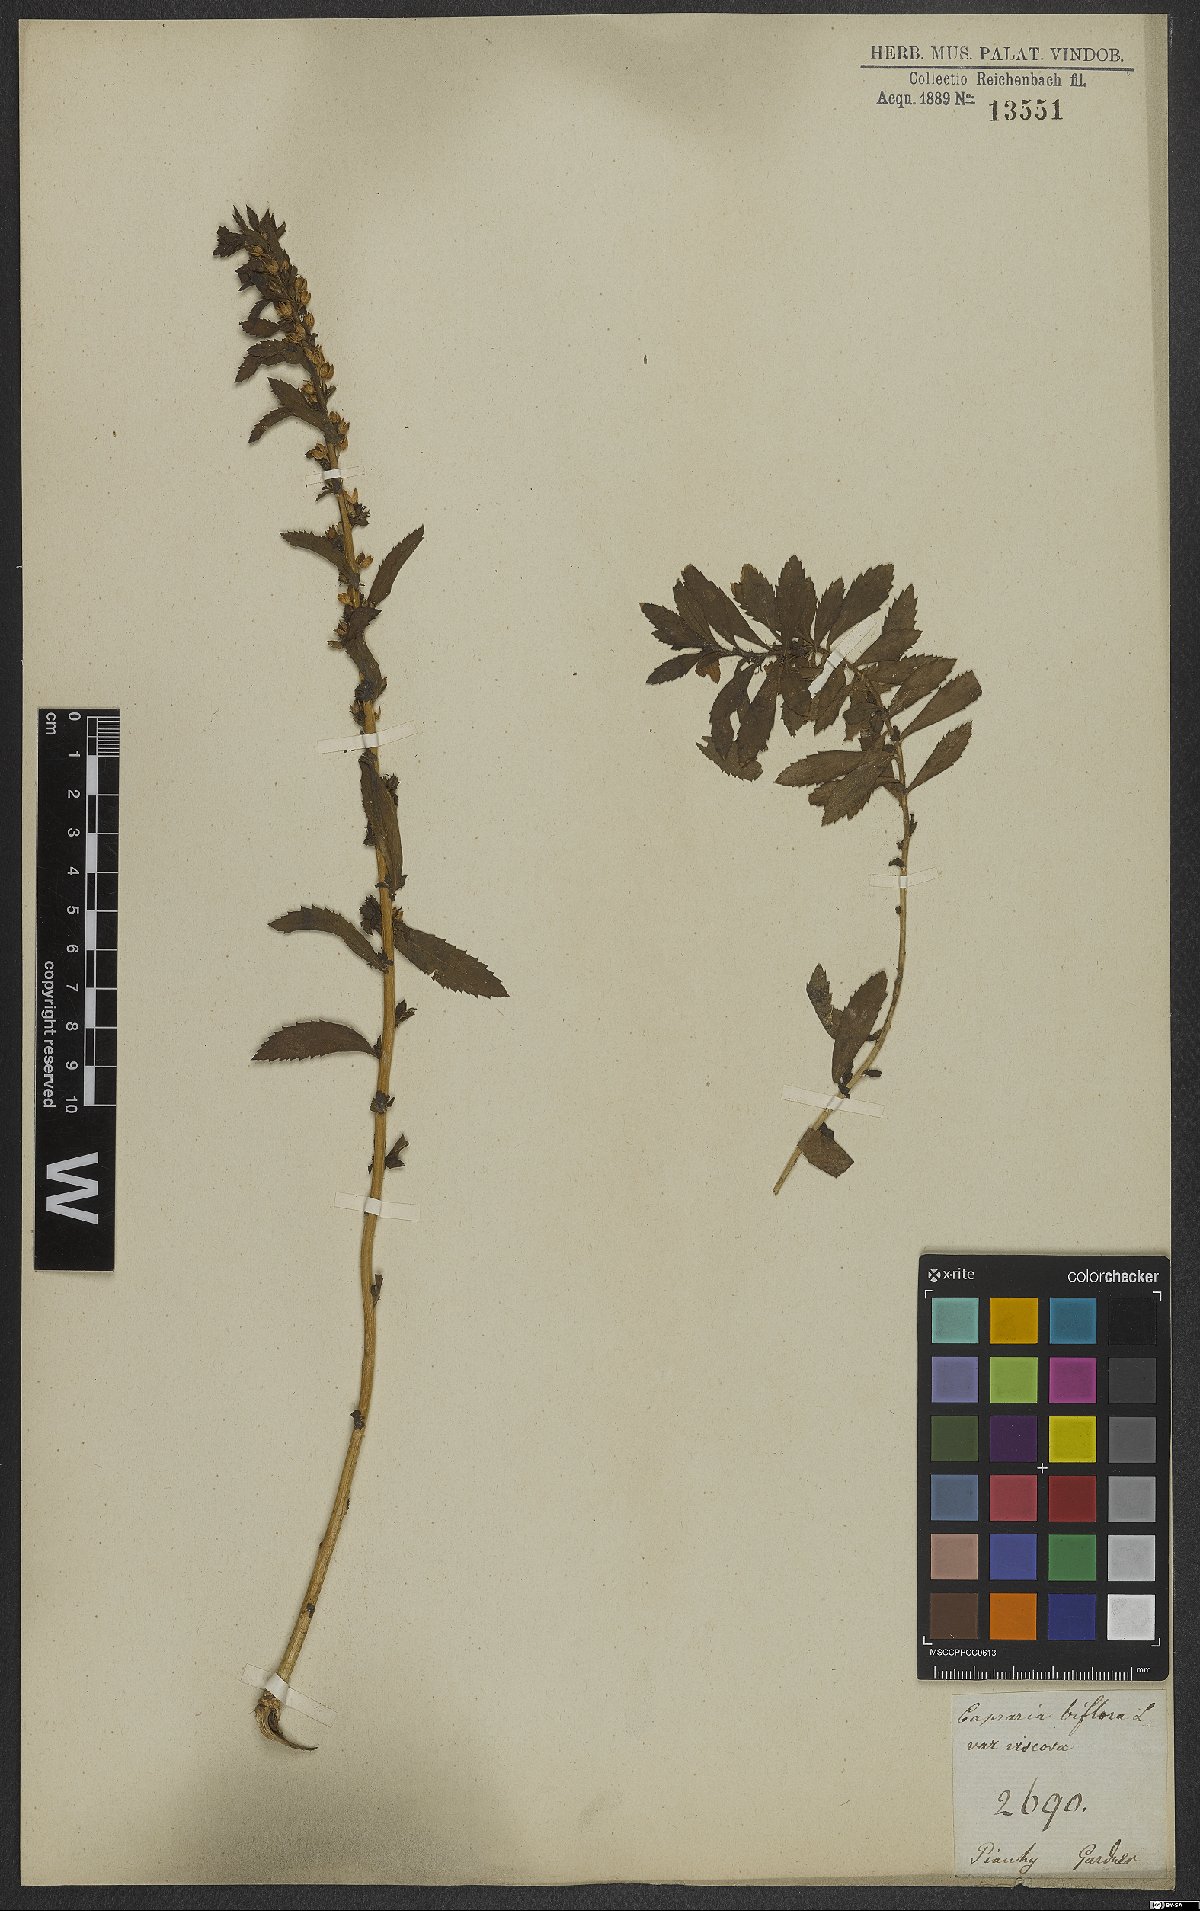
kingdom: Plantae
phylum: Tracheophyta
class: Magnoliopsida
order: Lamiales
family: Scrophulariaceae
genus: Capraria
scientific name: Capraria biflora
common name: Goatweed
